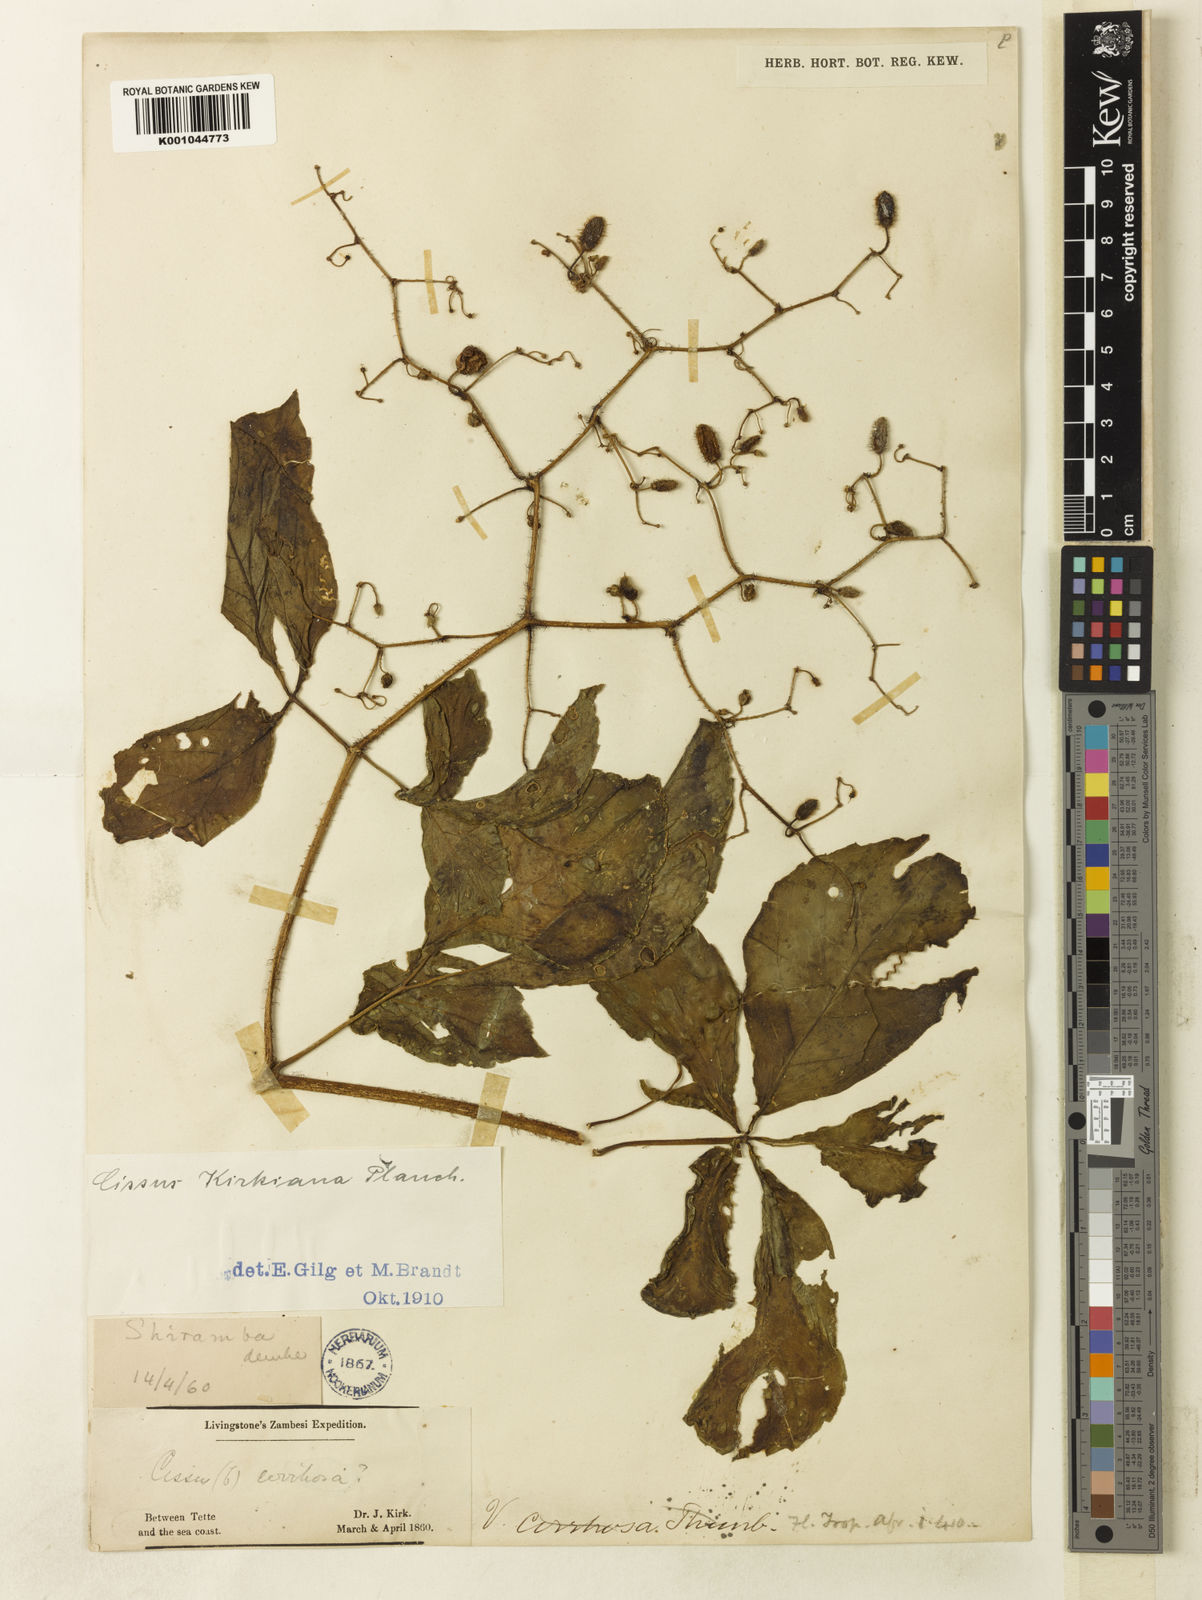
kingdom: Plantae
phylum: Tracheophyta
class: Magnoliopsida
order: Vitales
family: Vitaceae
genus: Cyphostemma
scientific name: Cyphostemma kirkianum
